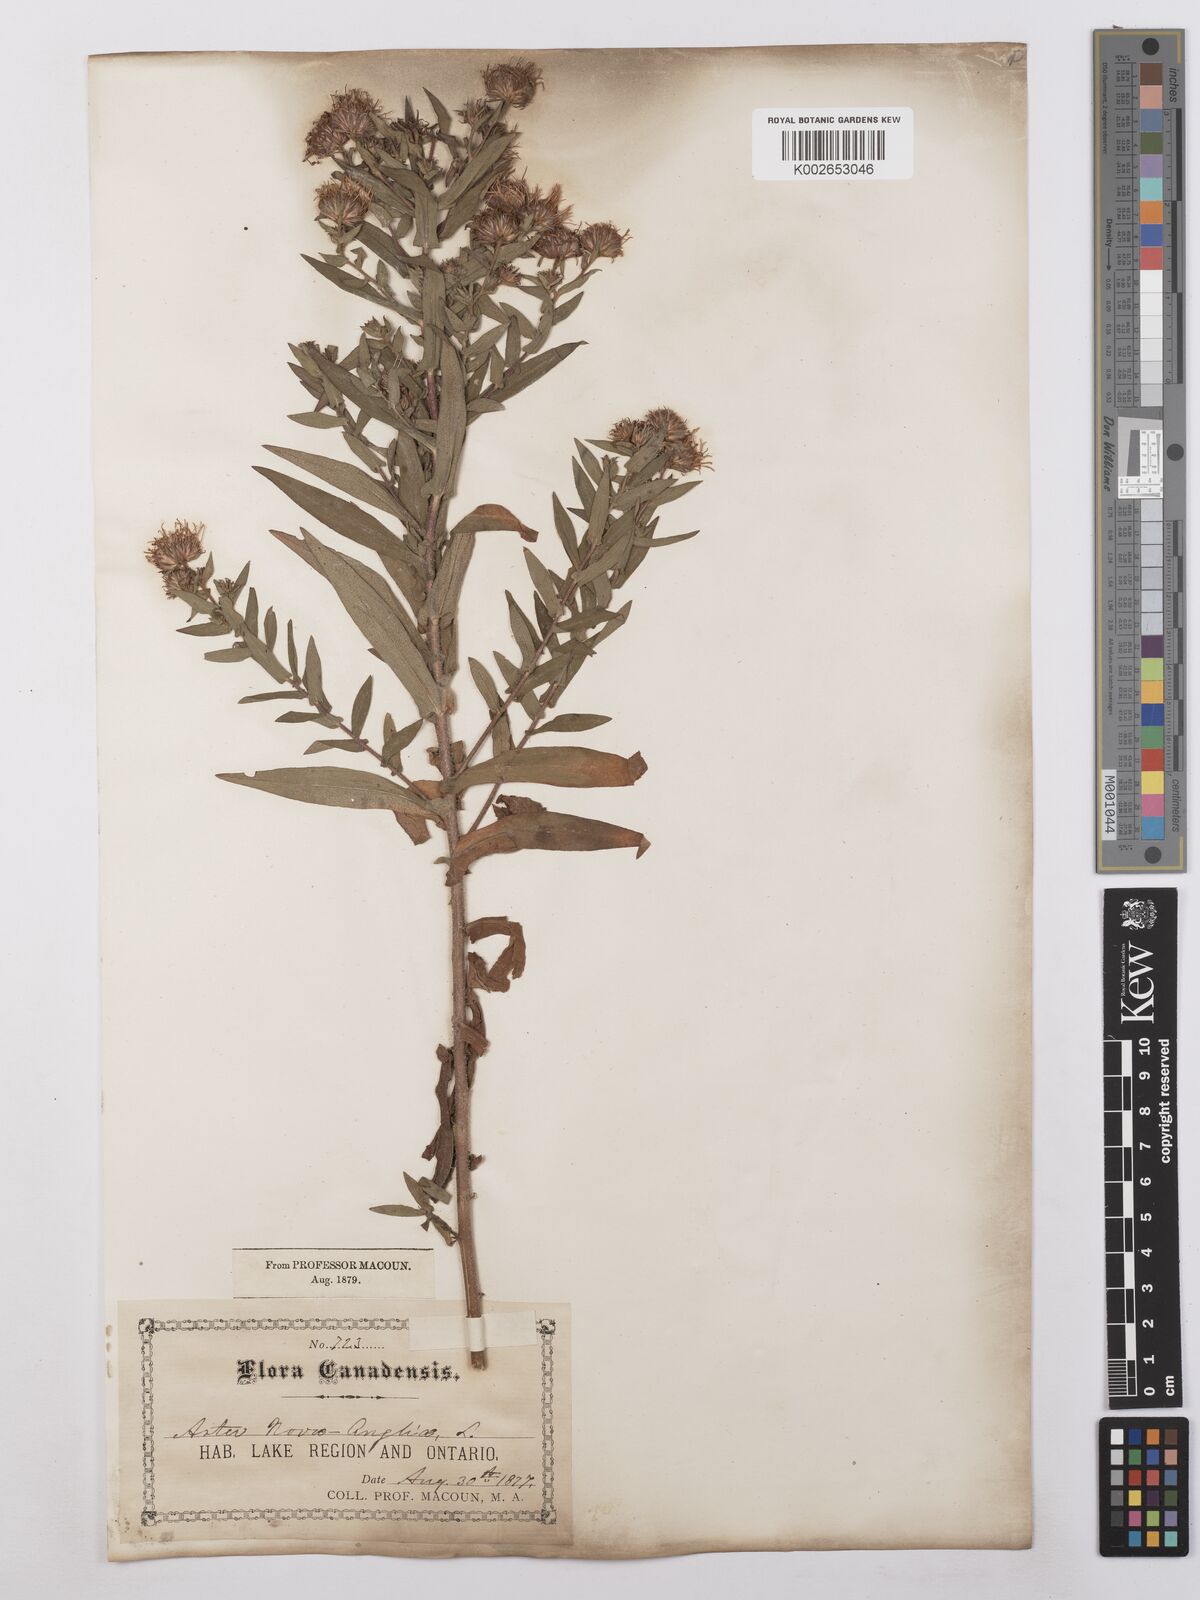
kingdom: Plantae
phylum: Tracheophyta
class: Magnoliopsida
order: Asterales
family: Asteraceae
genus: Symphyotrichum
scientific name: Symphyotrichum novae-angliae
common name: Michaelmas daisy
